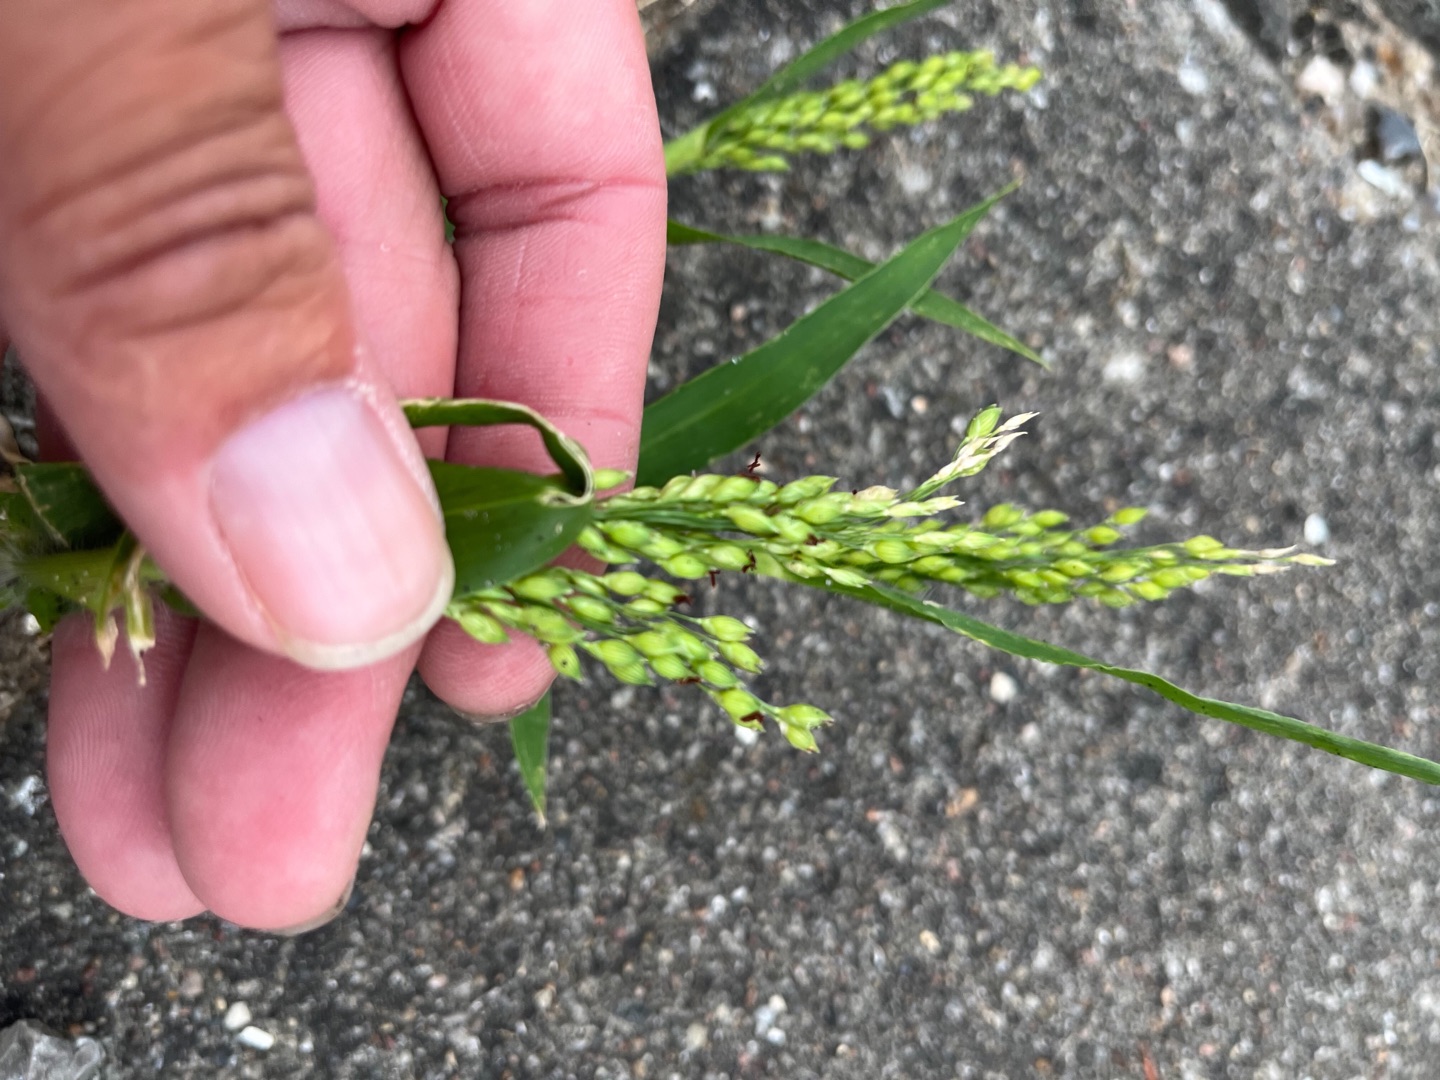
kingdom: Plantae
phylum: Tracheophyta
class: Liliopsida
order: Poales
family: Poaceae
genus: Panicum
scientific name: Panicum miliaceum
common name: Almindelig hirse
